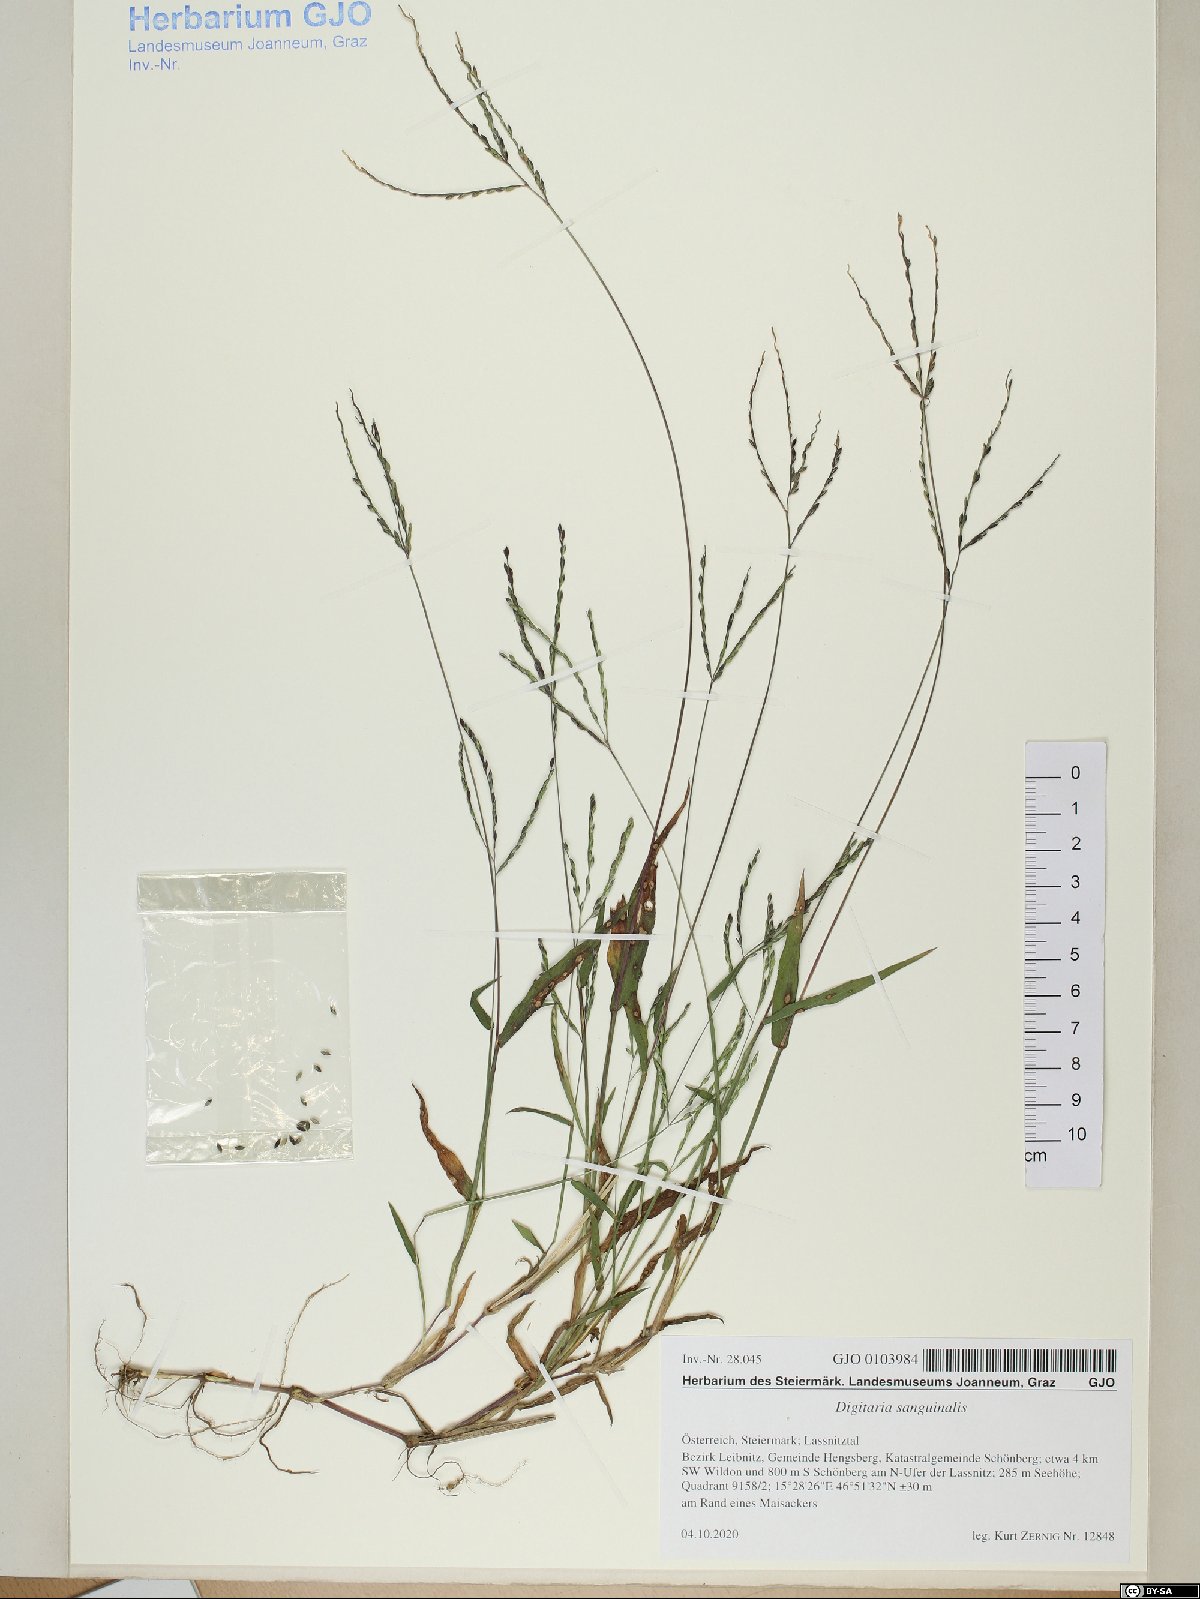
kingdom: Plantae
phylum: Tracheophyta
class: Liliopsida
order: Poales
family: Poaceae
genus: Digitaria
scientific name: Digitaria sanguinalis
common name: Hairy crabgrass
